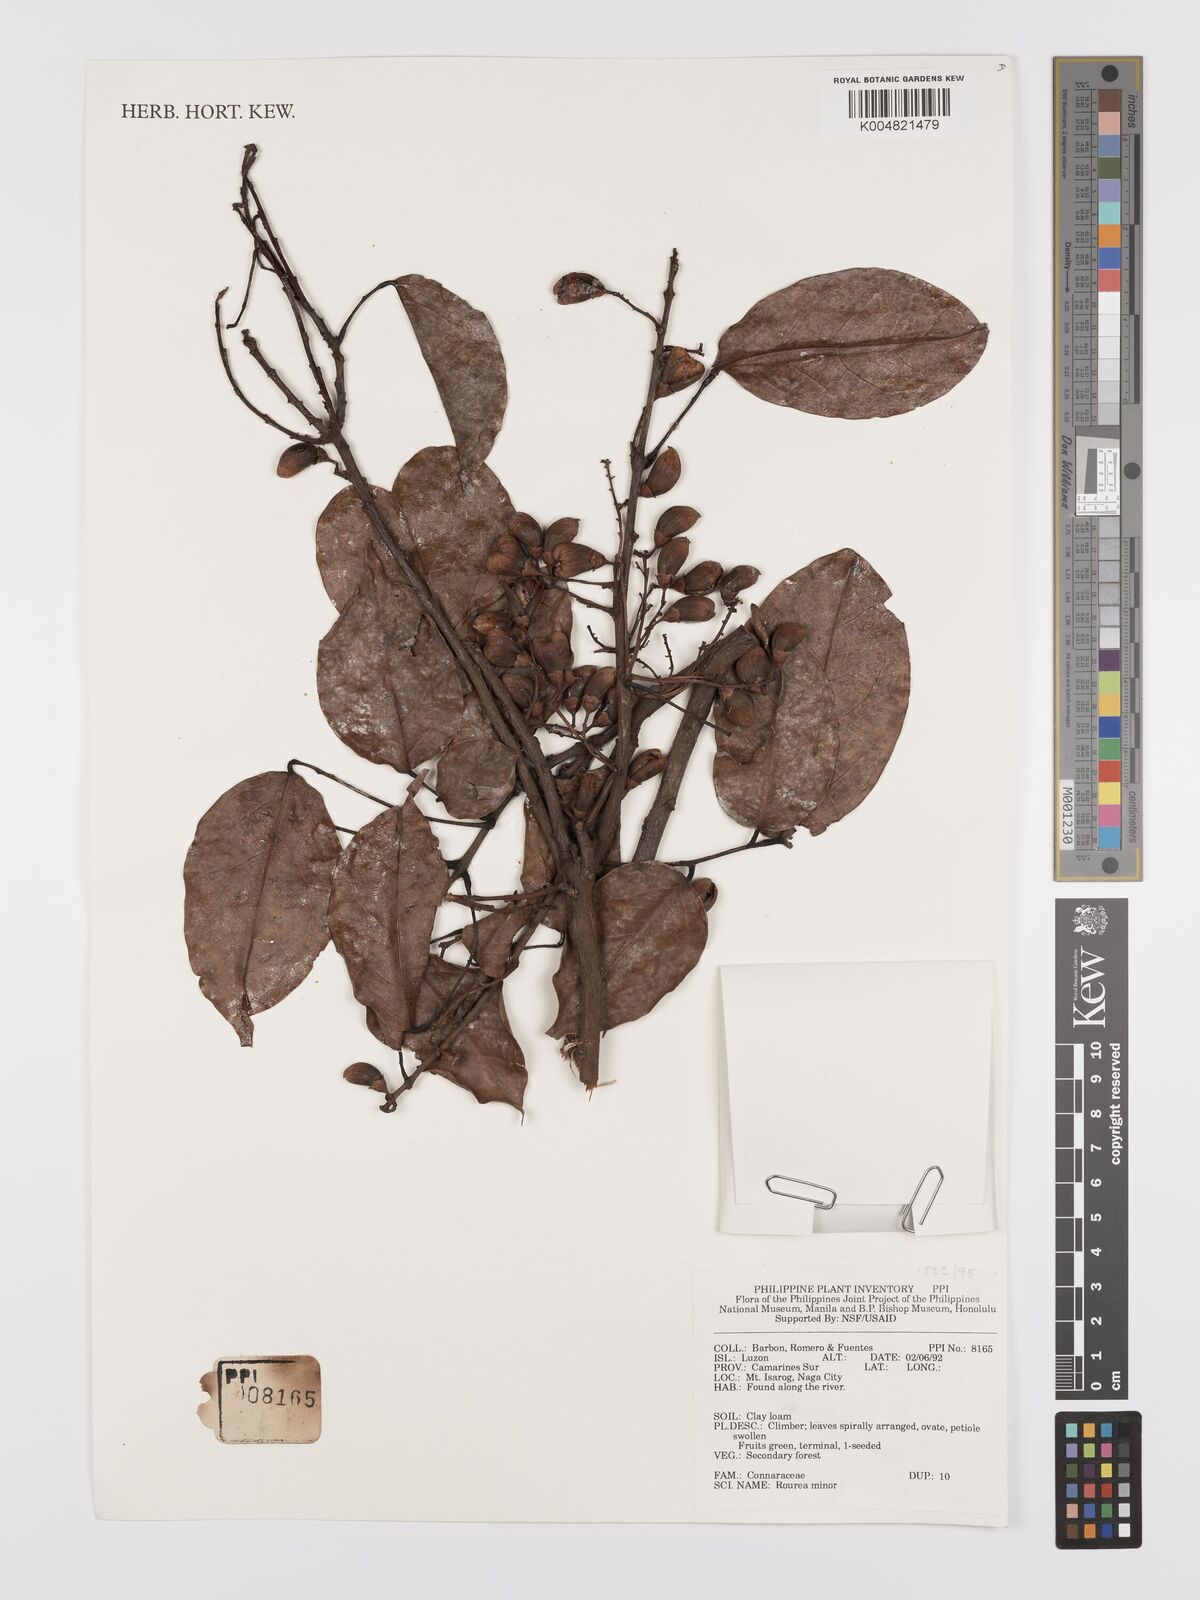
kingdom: Plantae
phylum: Tracheophyta
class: Magnoliopsida
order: Oxalidales
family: Connaraceae
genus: Rourea
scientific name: Rourea minor
